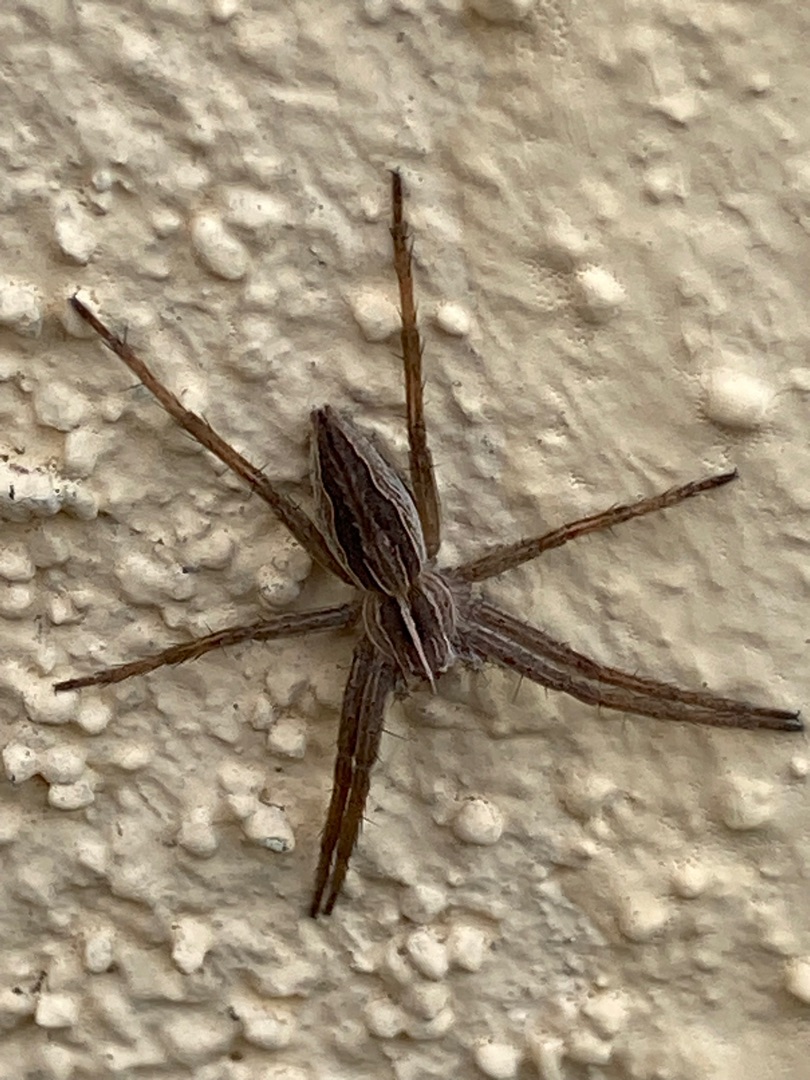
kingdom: Animalia
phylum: Arthropoda
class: Arachnida
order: Araneae
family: Pisauridae
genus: Pisaura
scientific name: Pisaura mirabilis
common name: Almindelig rovedderkop
